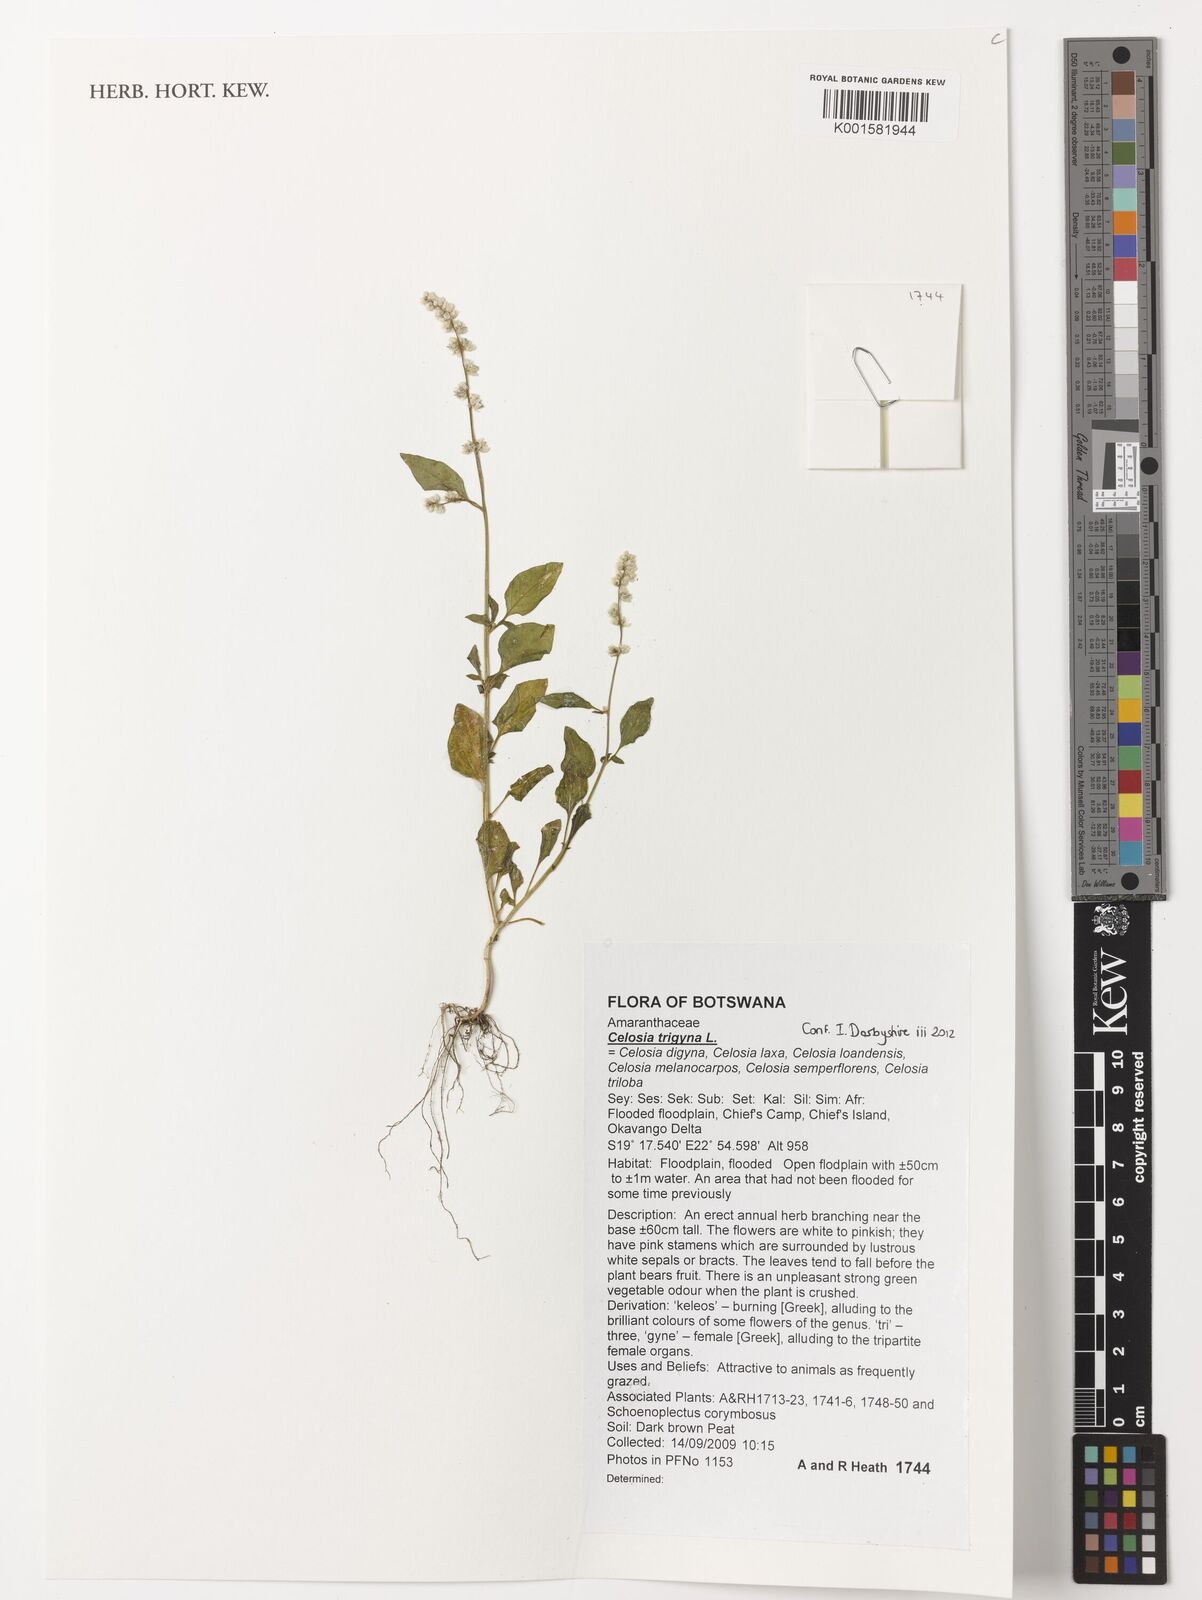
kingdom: Plantae
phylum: Tracheophyta
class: Magnoliopsida
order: Caryophyllales
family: Amaranthaceae
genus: Celosia
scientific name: Celosia trigyna
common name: Woolflower
